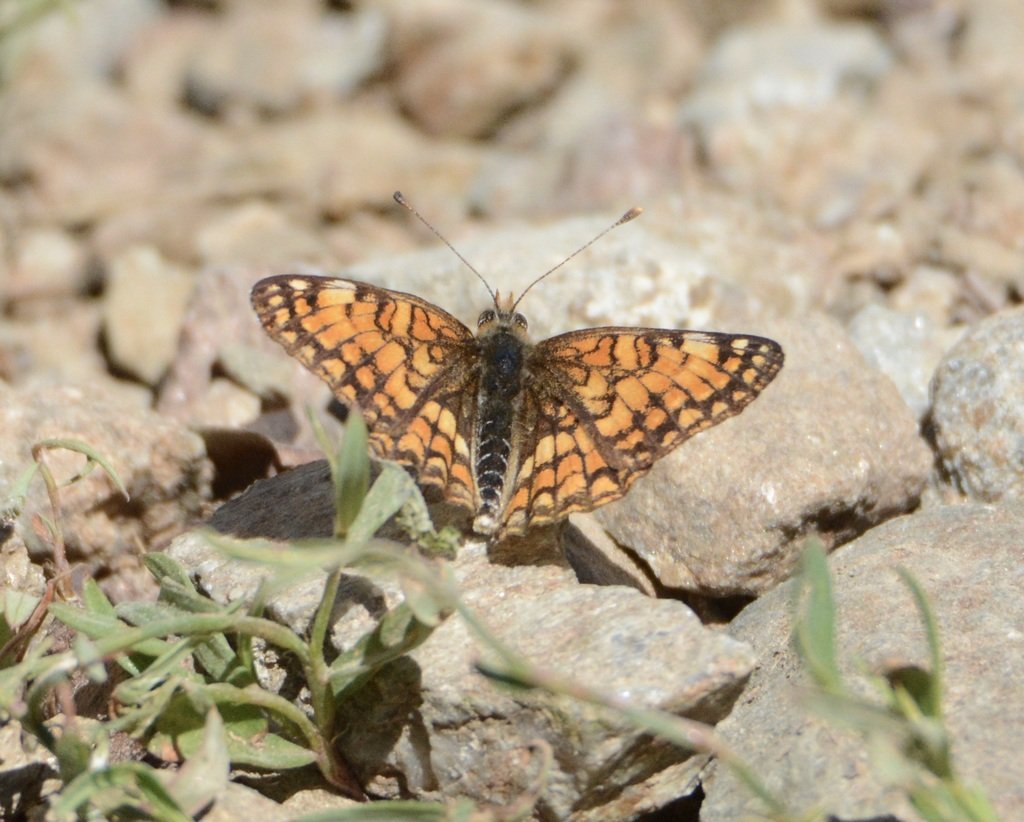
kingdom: Animalia
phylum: Arthropoda
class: Insecta
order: Lepidoptera
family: Nymphalidae
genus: Chlosyne
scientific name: Chlosyne acastus
